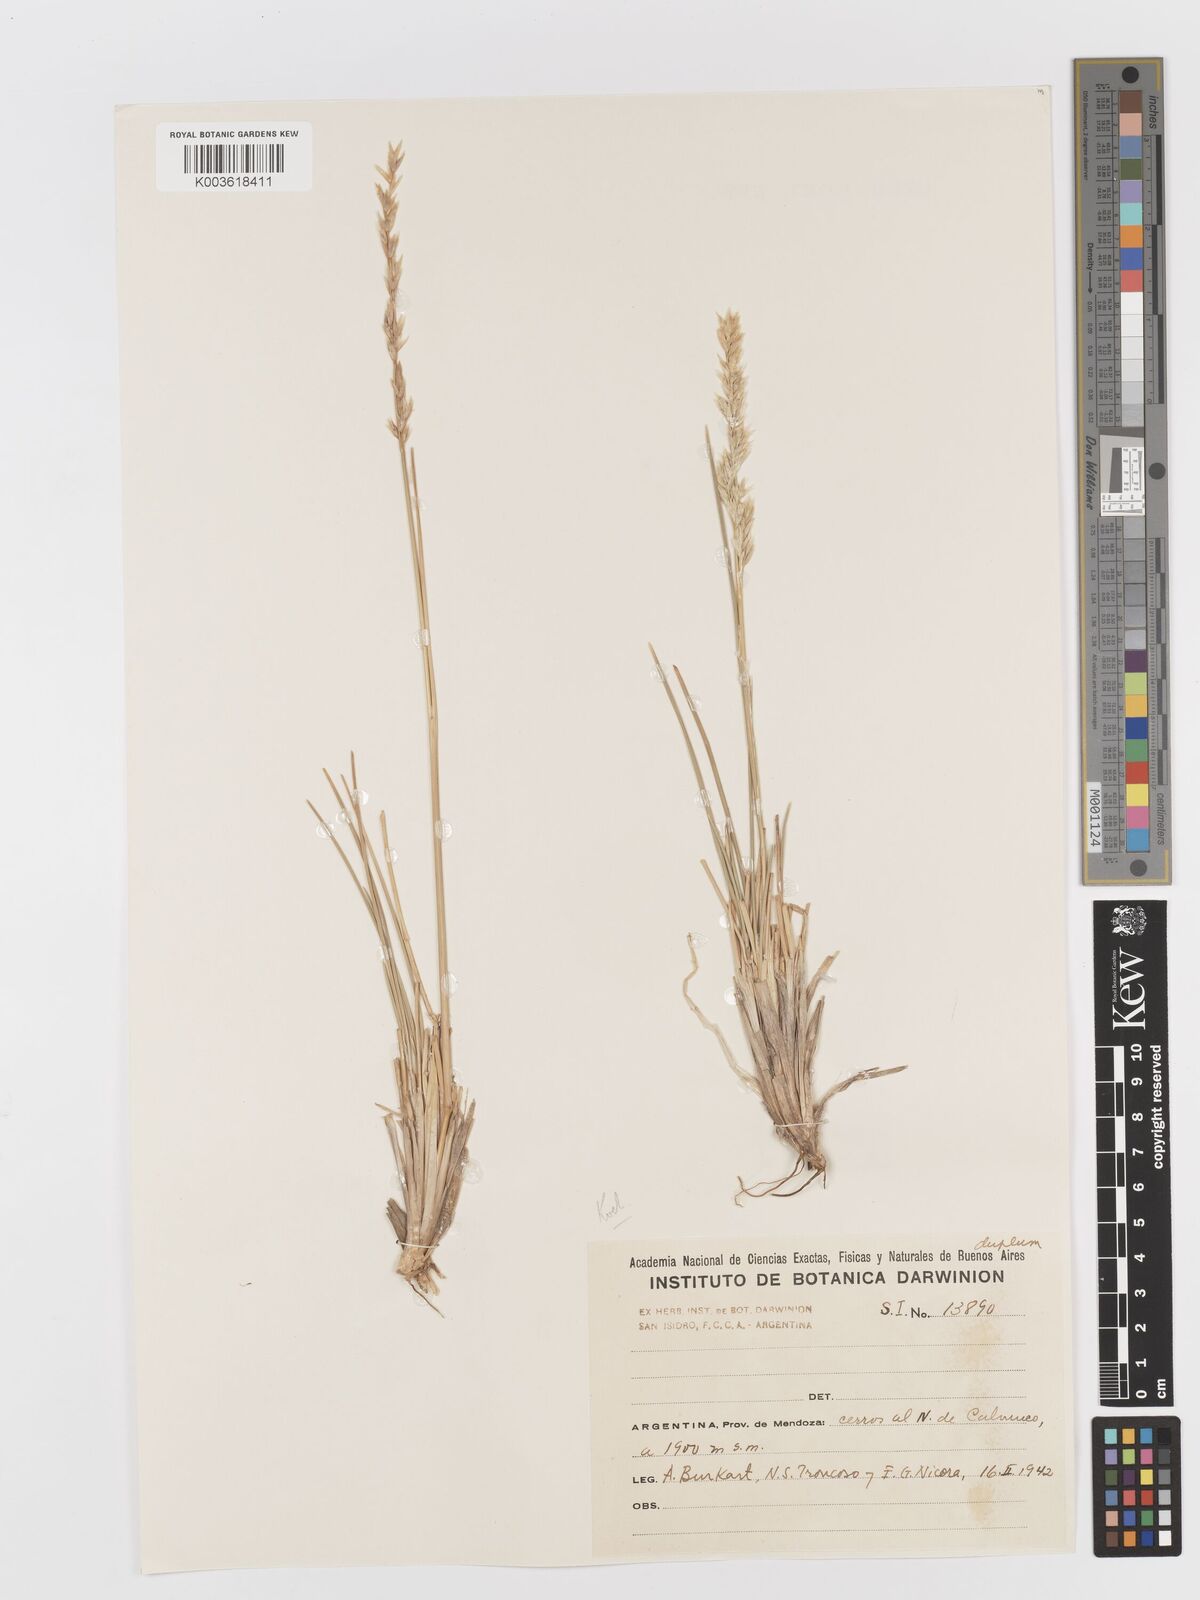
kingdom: Plantae
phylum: Tracheophyta
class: Liliopsida
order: Poales
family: Poaceae
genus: Koeleria
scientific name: Koeleria
